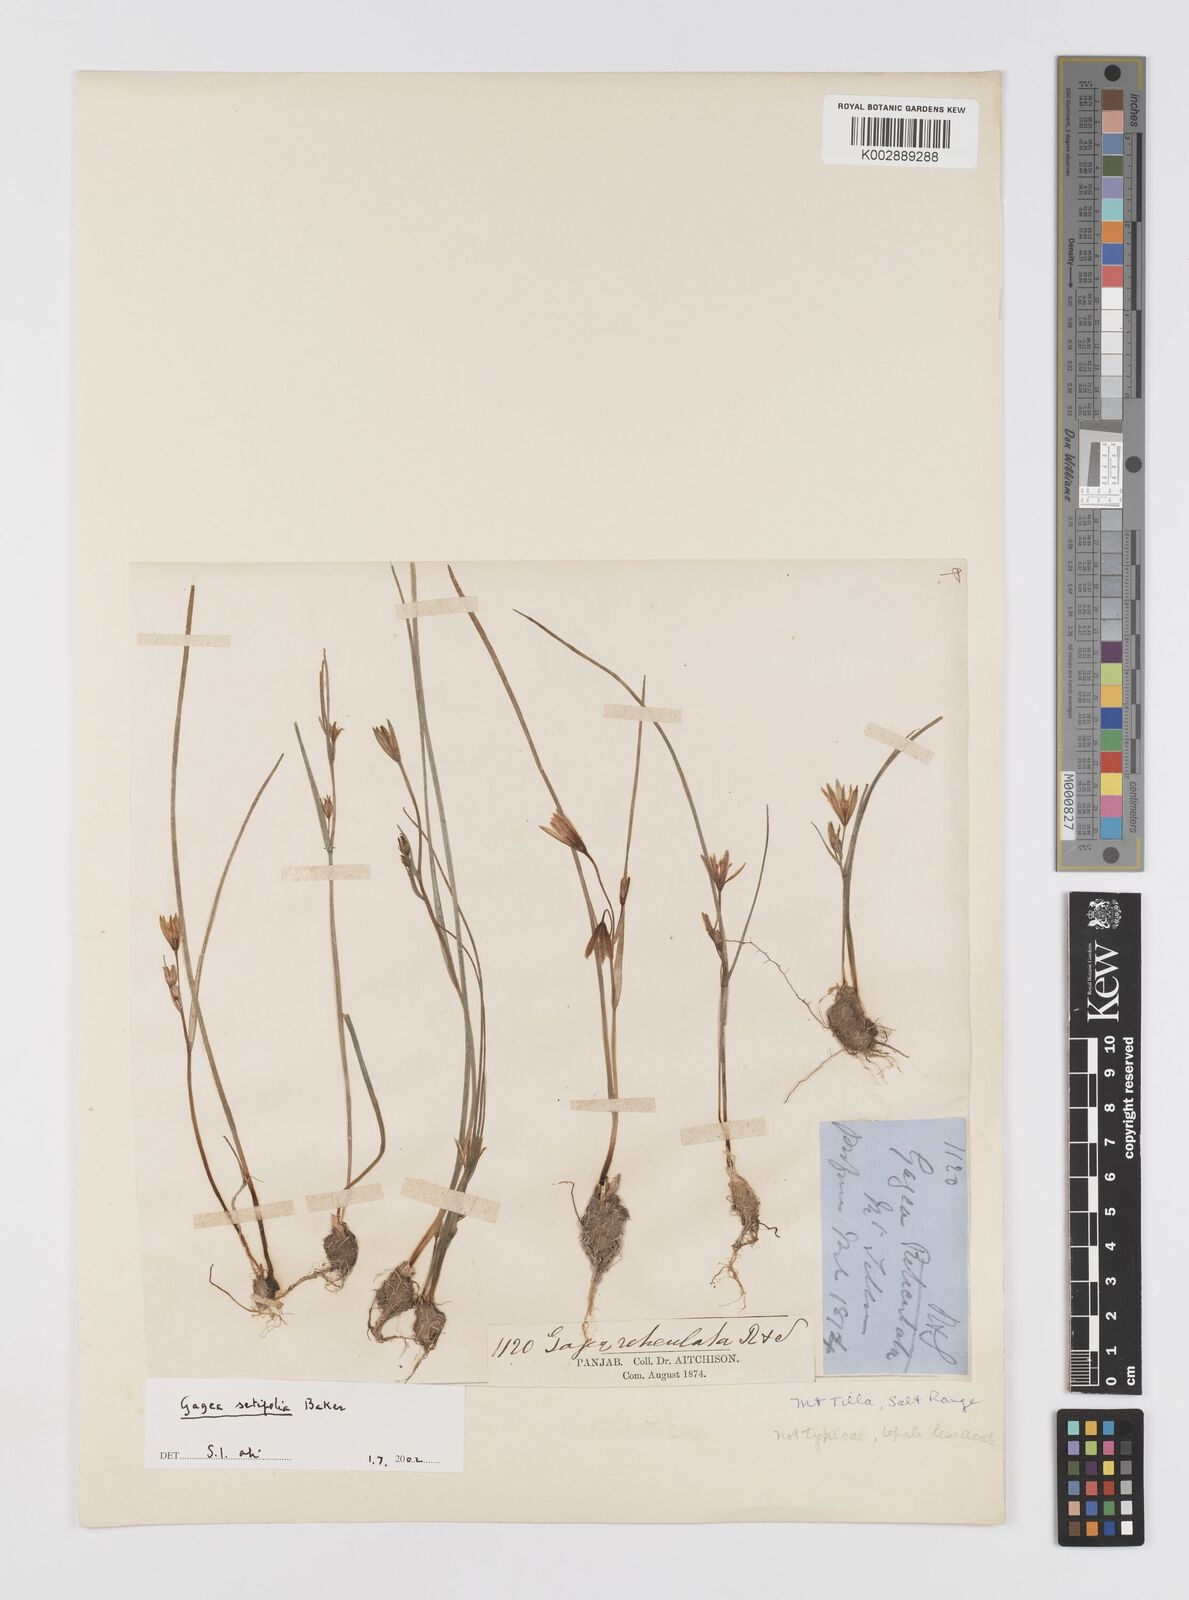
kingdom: Plantae
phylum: Tracheophyta
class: Liliopsida
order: Liliales
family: Liliaceae
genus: Gagea
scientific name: Gagea setifolia
